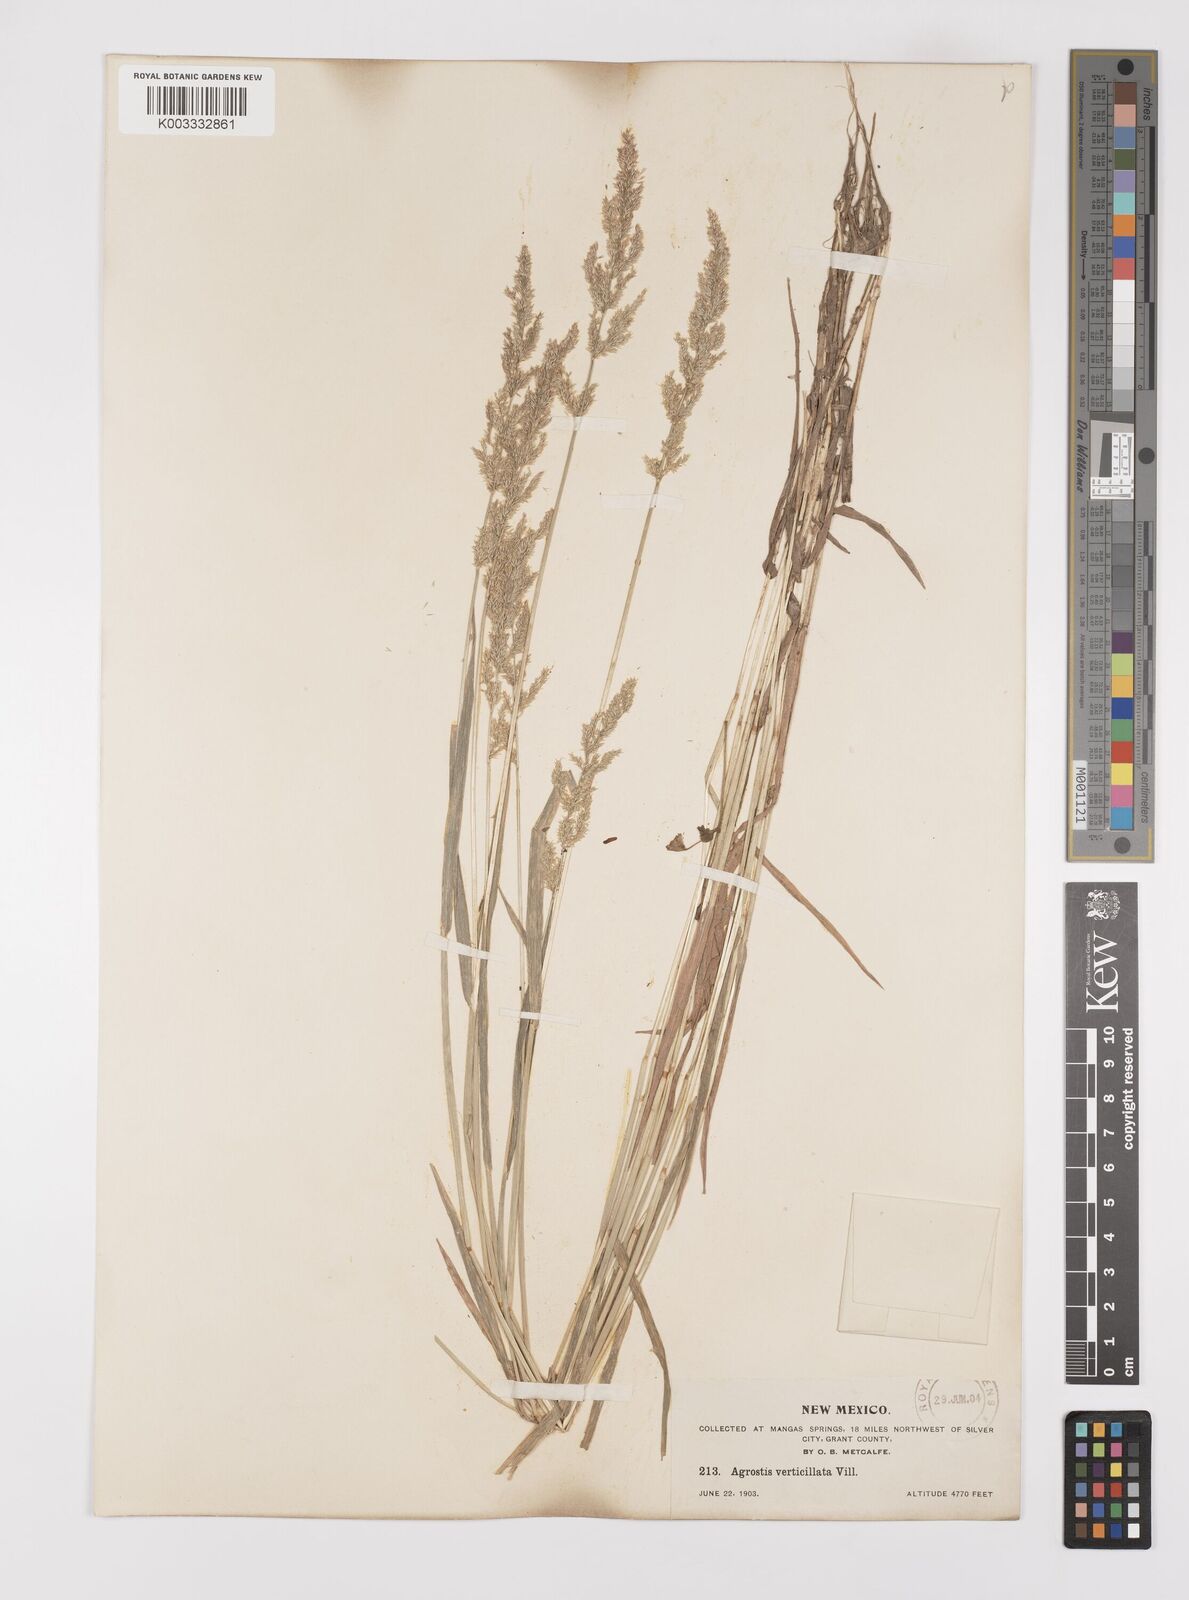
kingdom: Plantae
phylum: Tracheophyta
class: Liliopsida
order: Poales
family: Poaceae
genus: Polypogon
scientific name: Polypogon viridis
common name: Water bent
